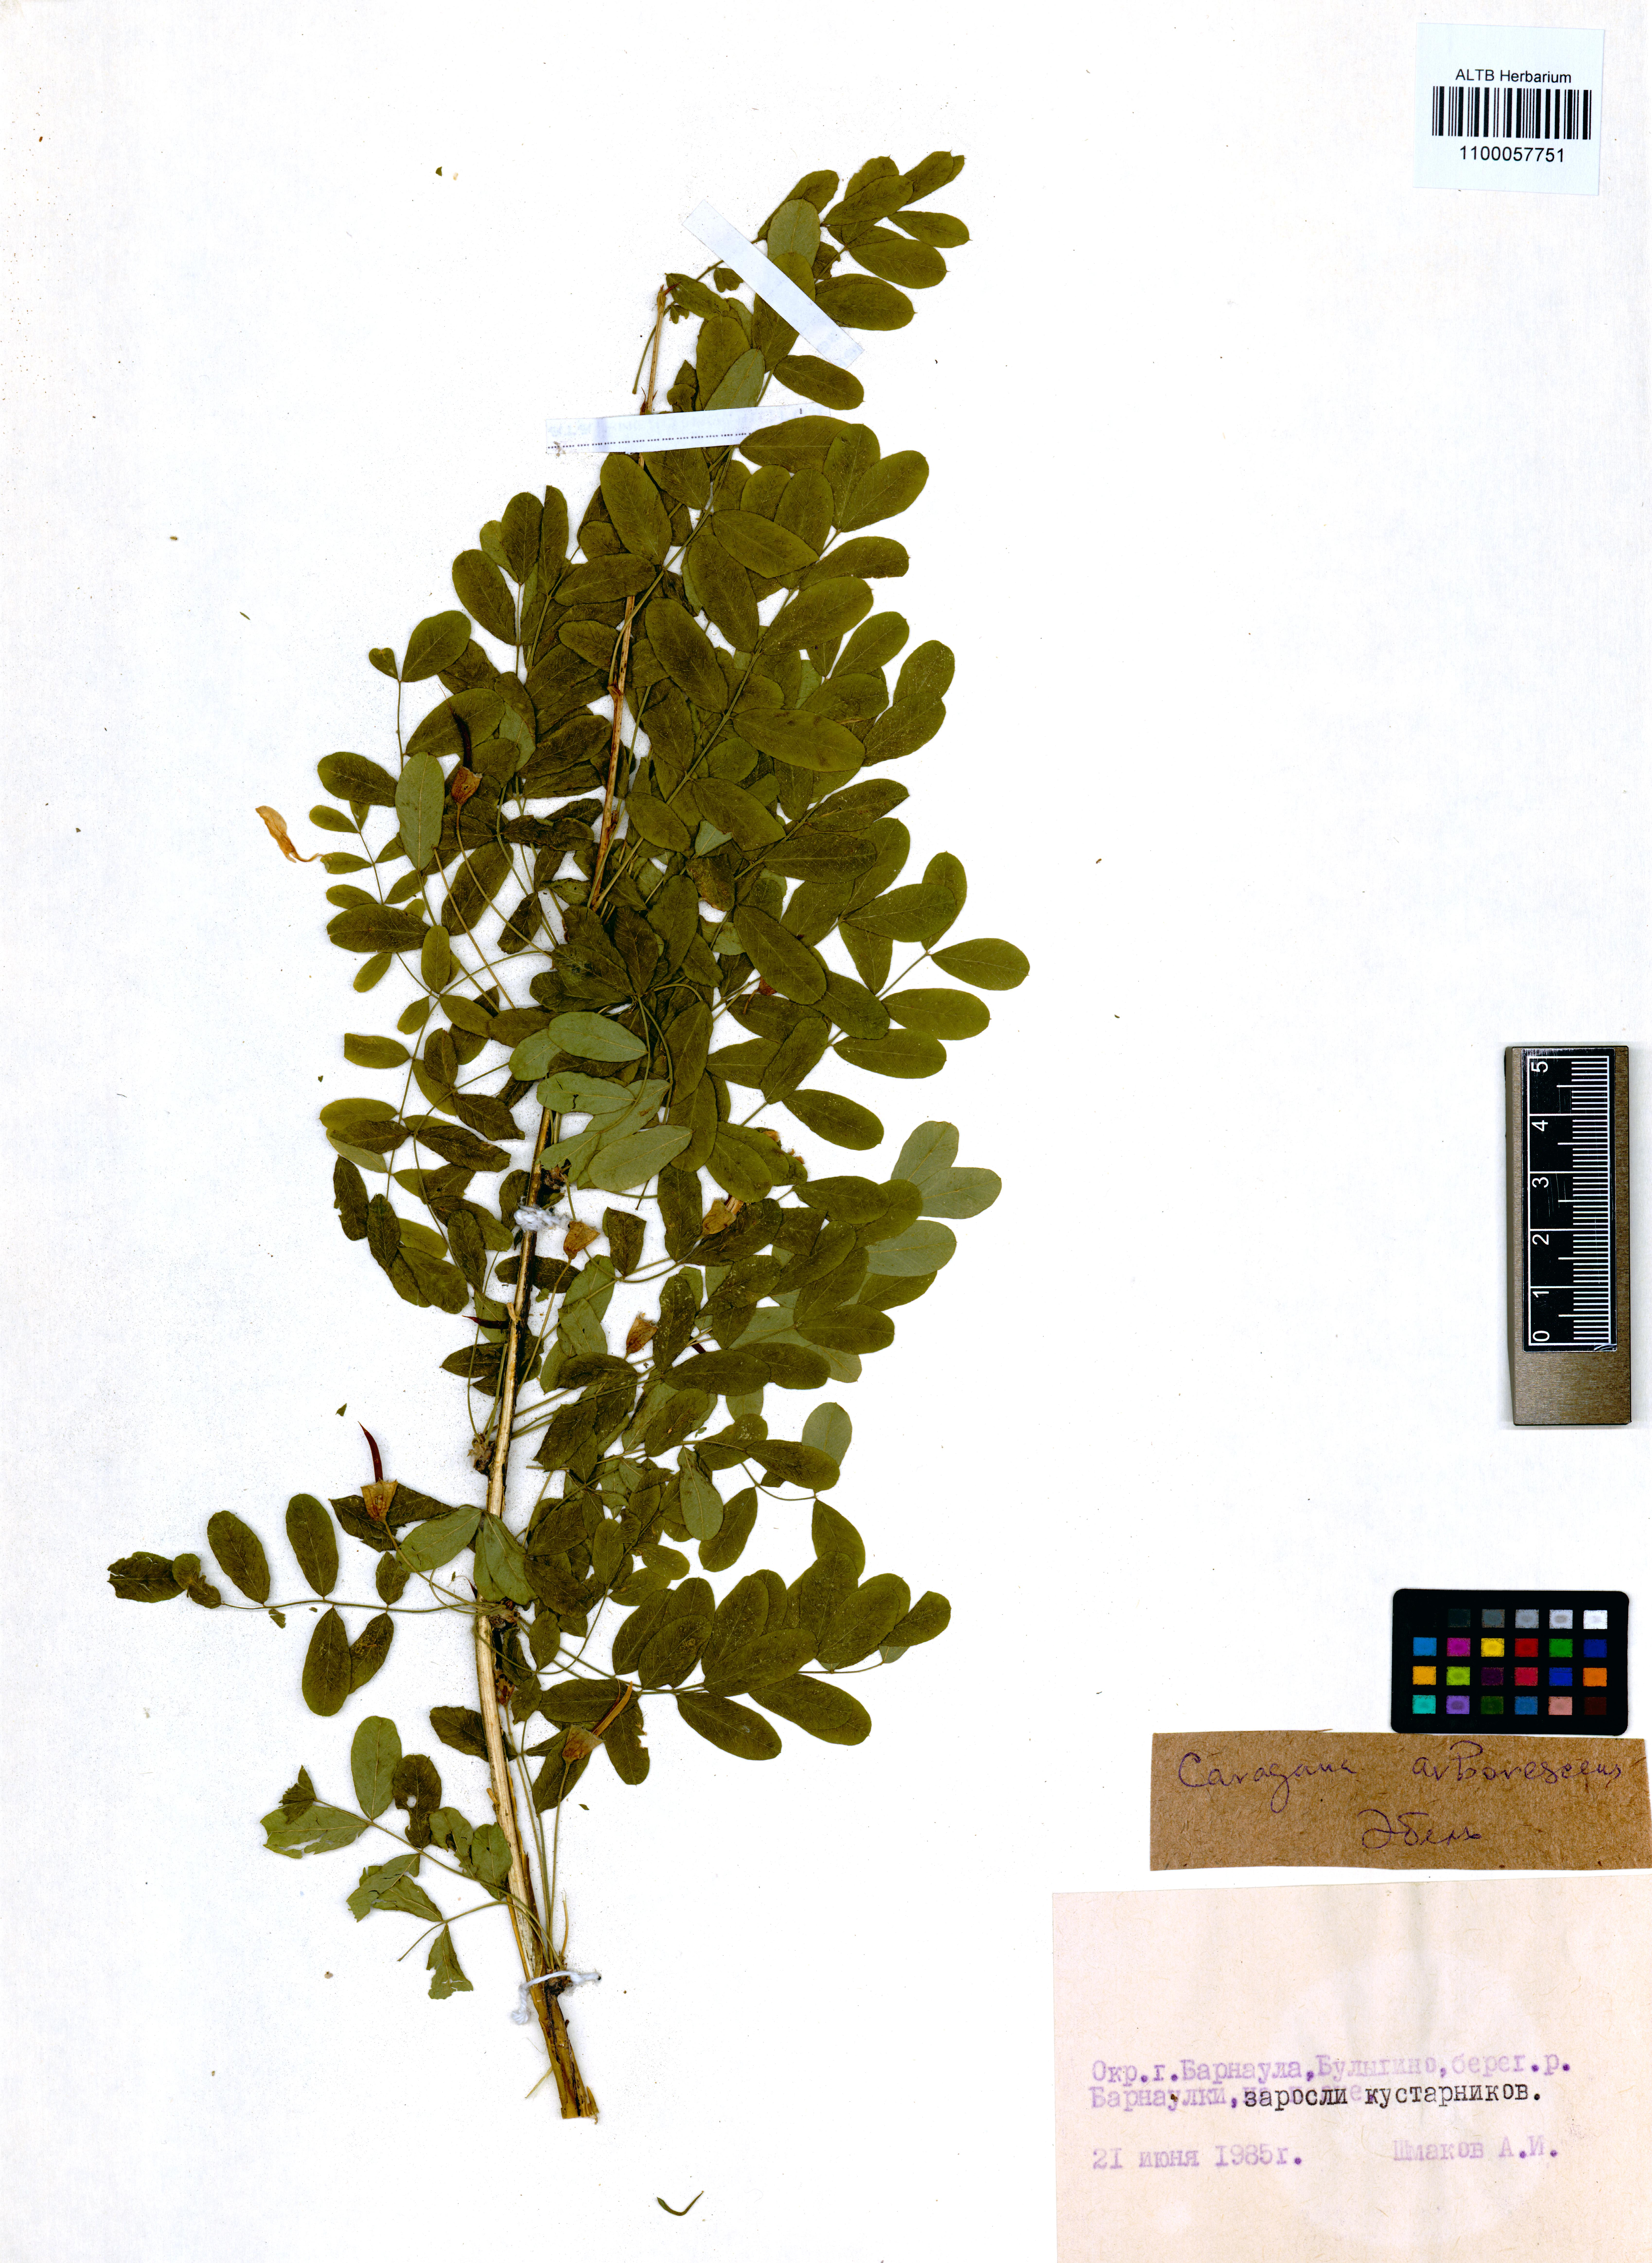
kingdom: Plantae
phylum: Tracheophyta
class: Magnoliopsida
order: Fabales
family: Fabaceae
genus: Caragana
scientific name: Caragana arborescens
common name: Siberian peashrub
